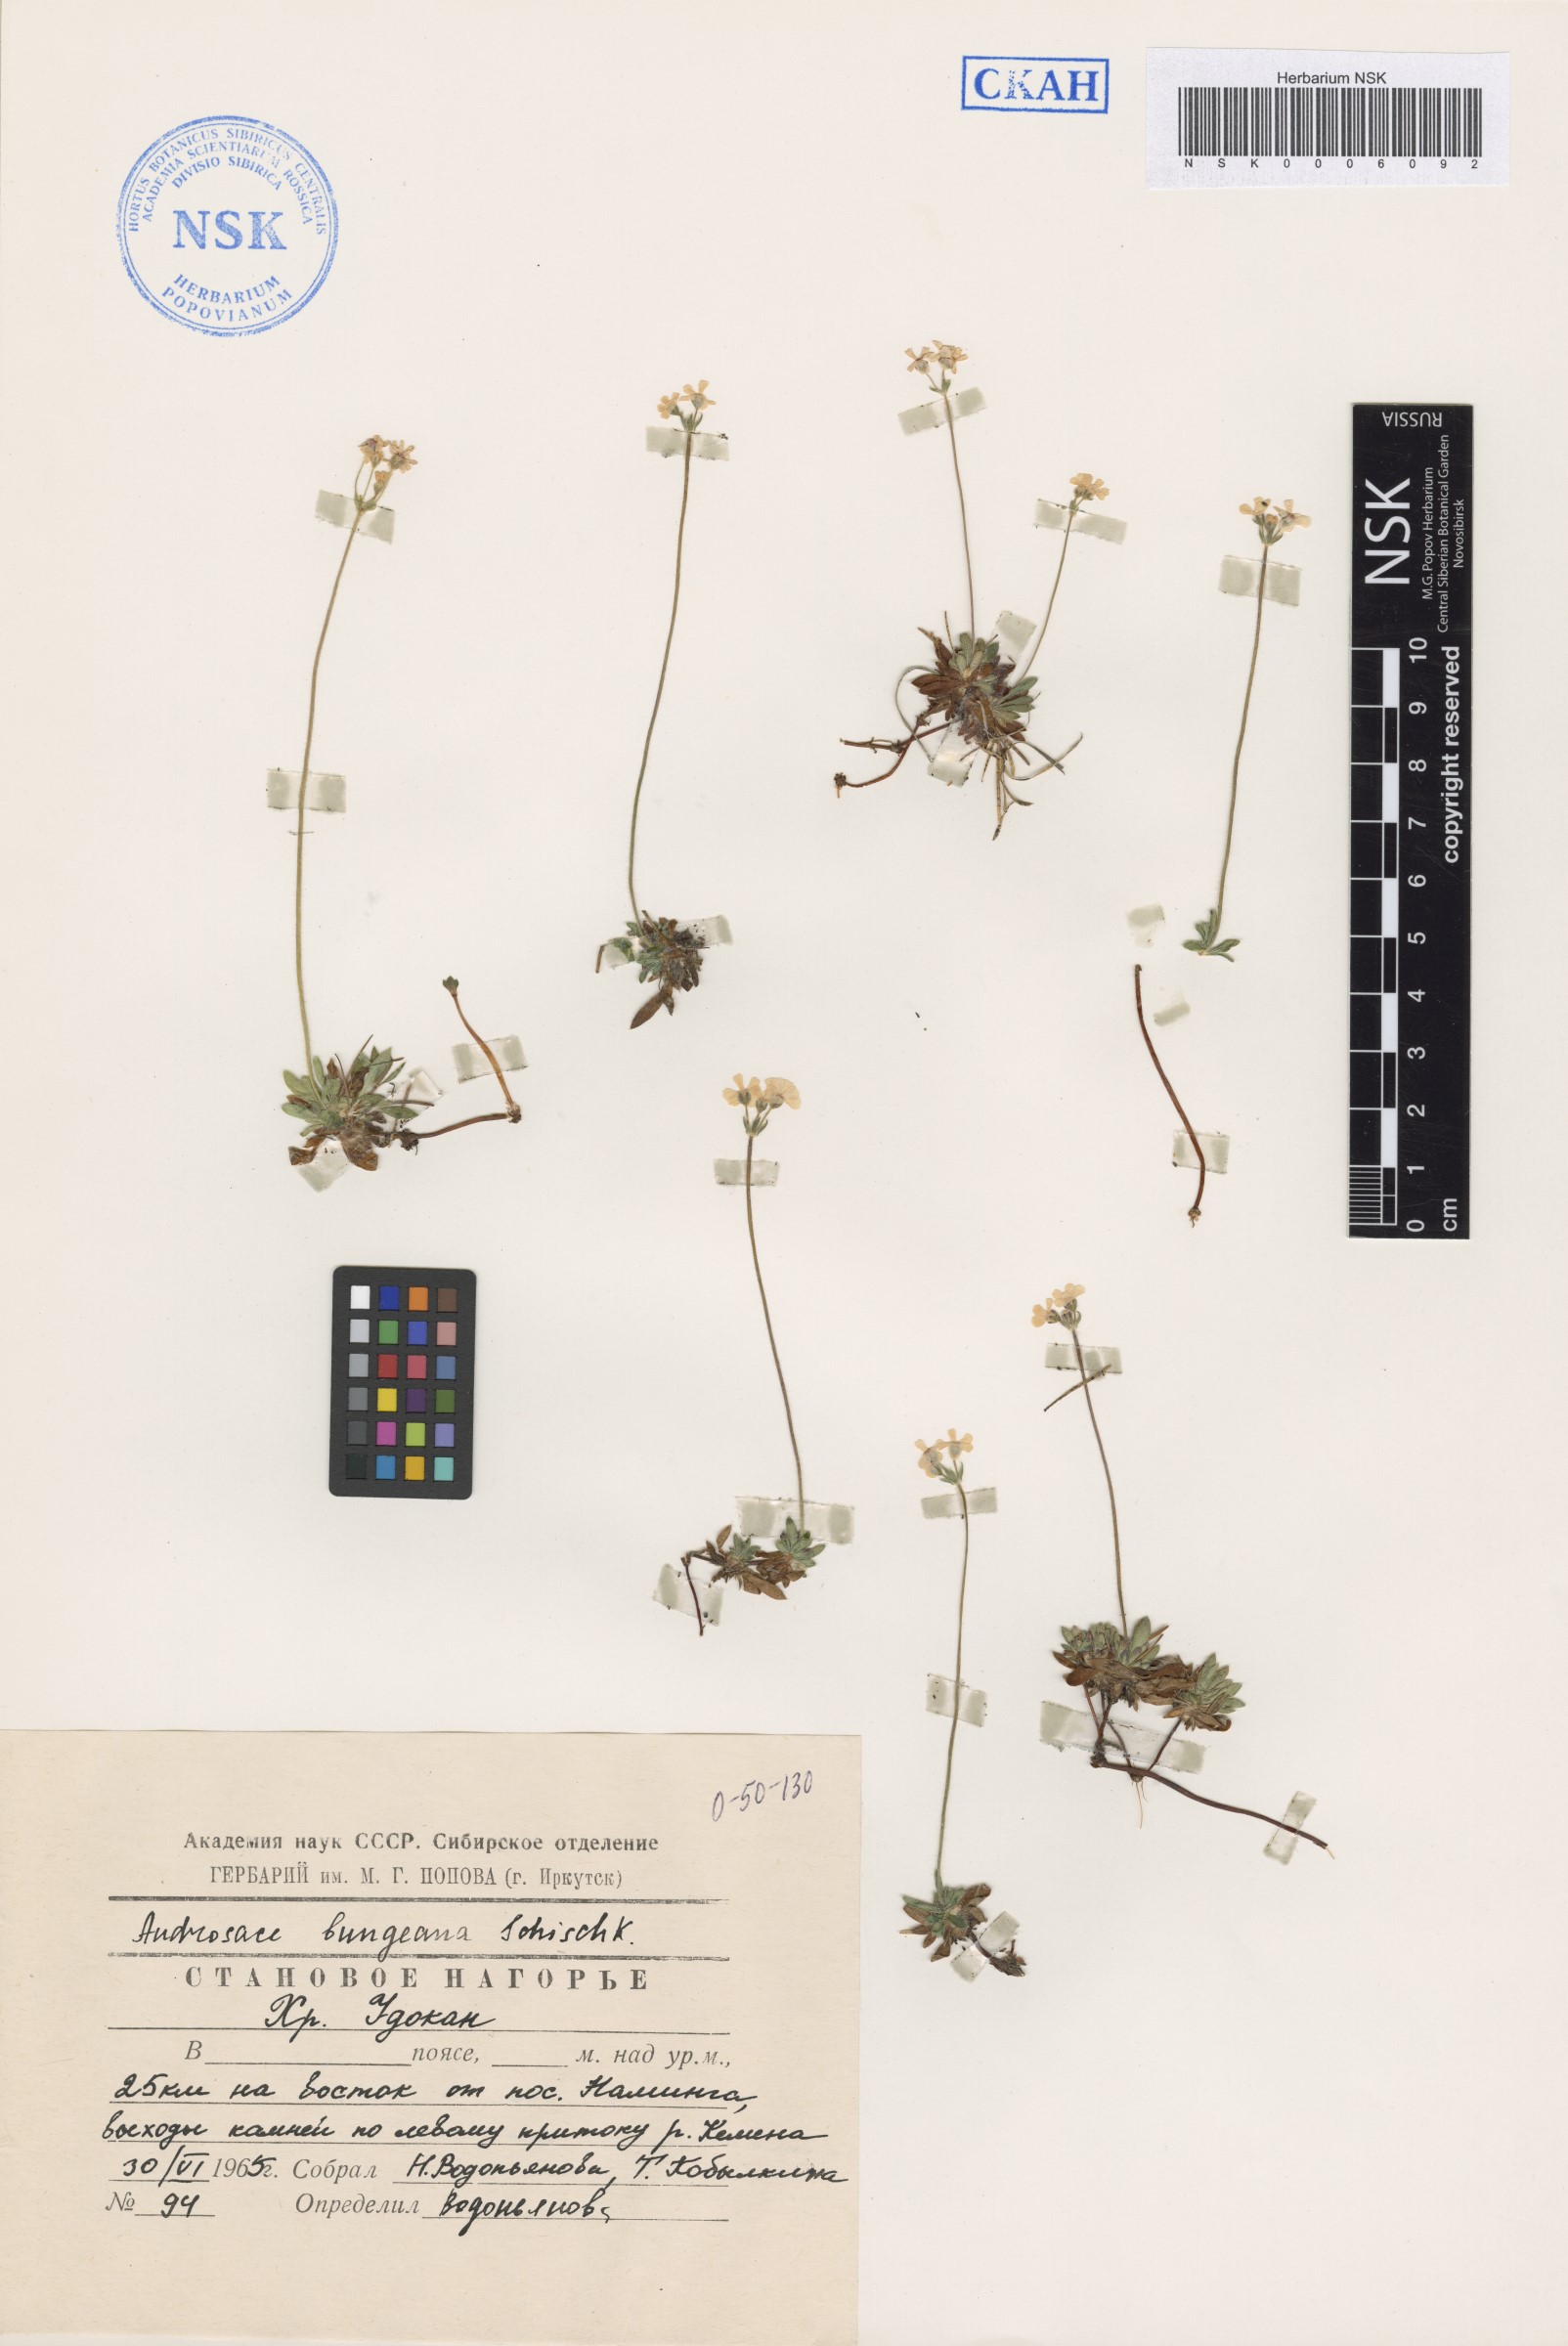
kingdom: Plantae
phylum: Tracheophyta
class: Magnoliopsida
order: Ericales
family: Primulaceae
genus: Androsace
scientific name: Androsace bungeana
